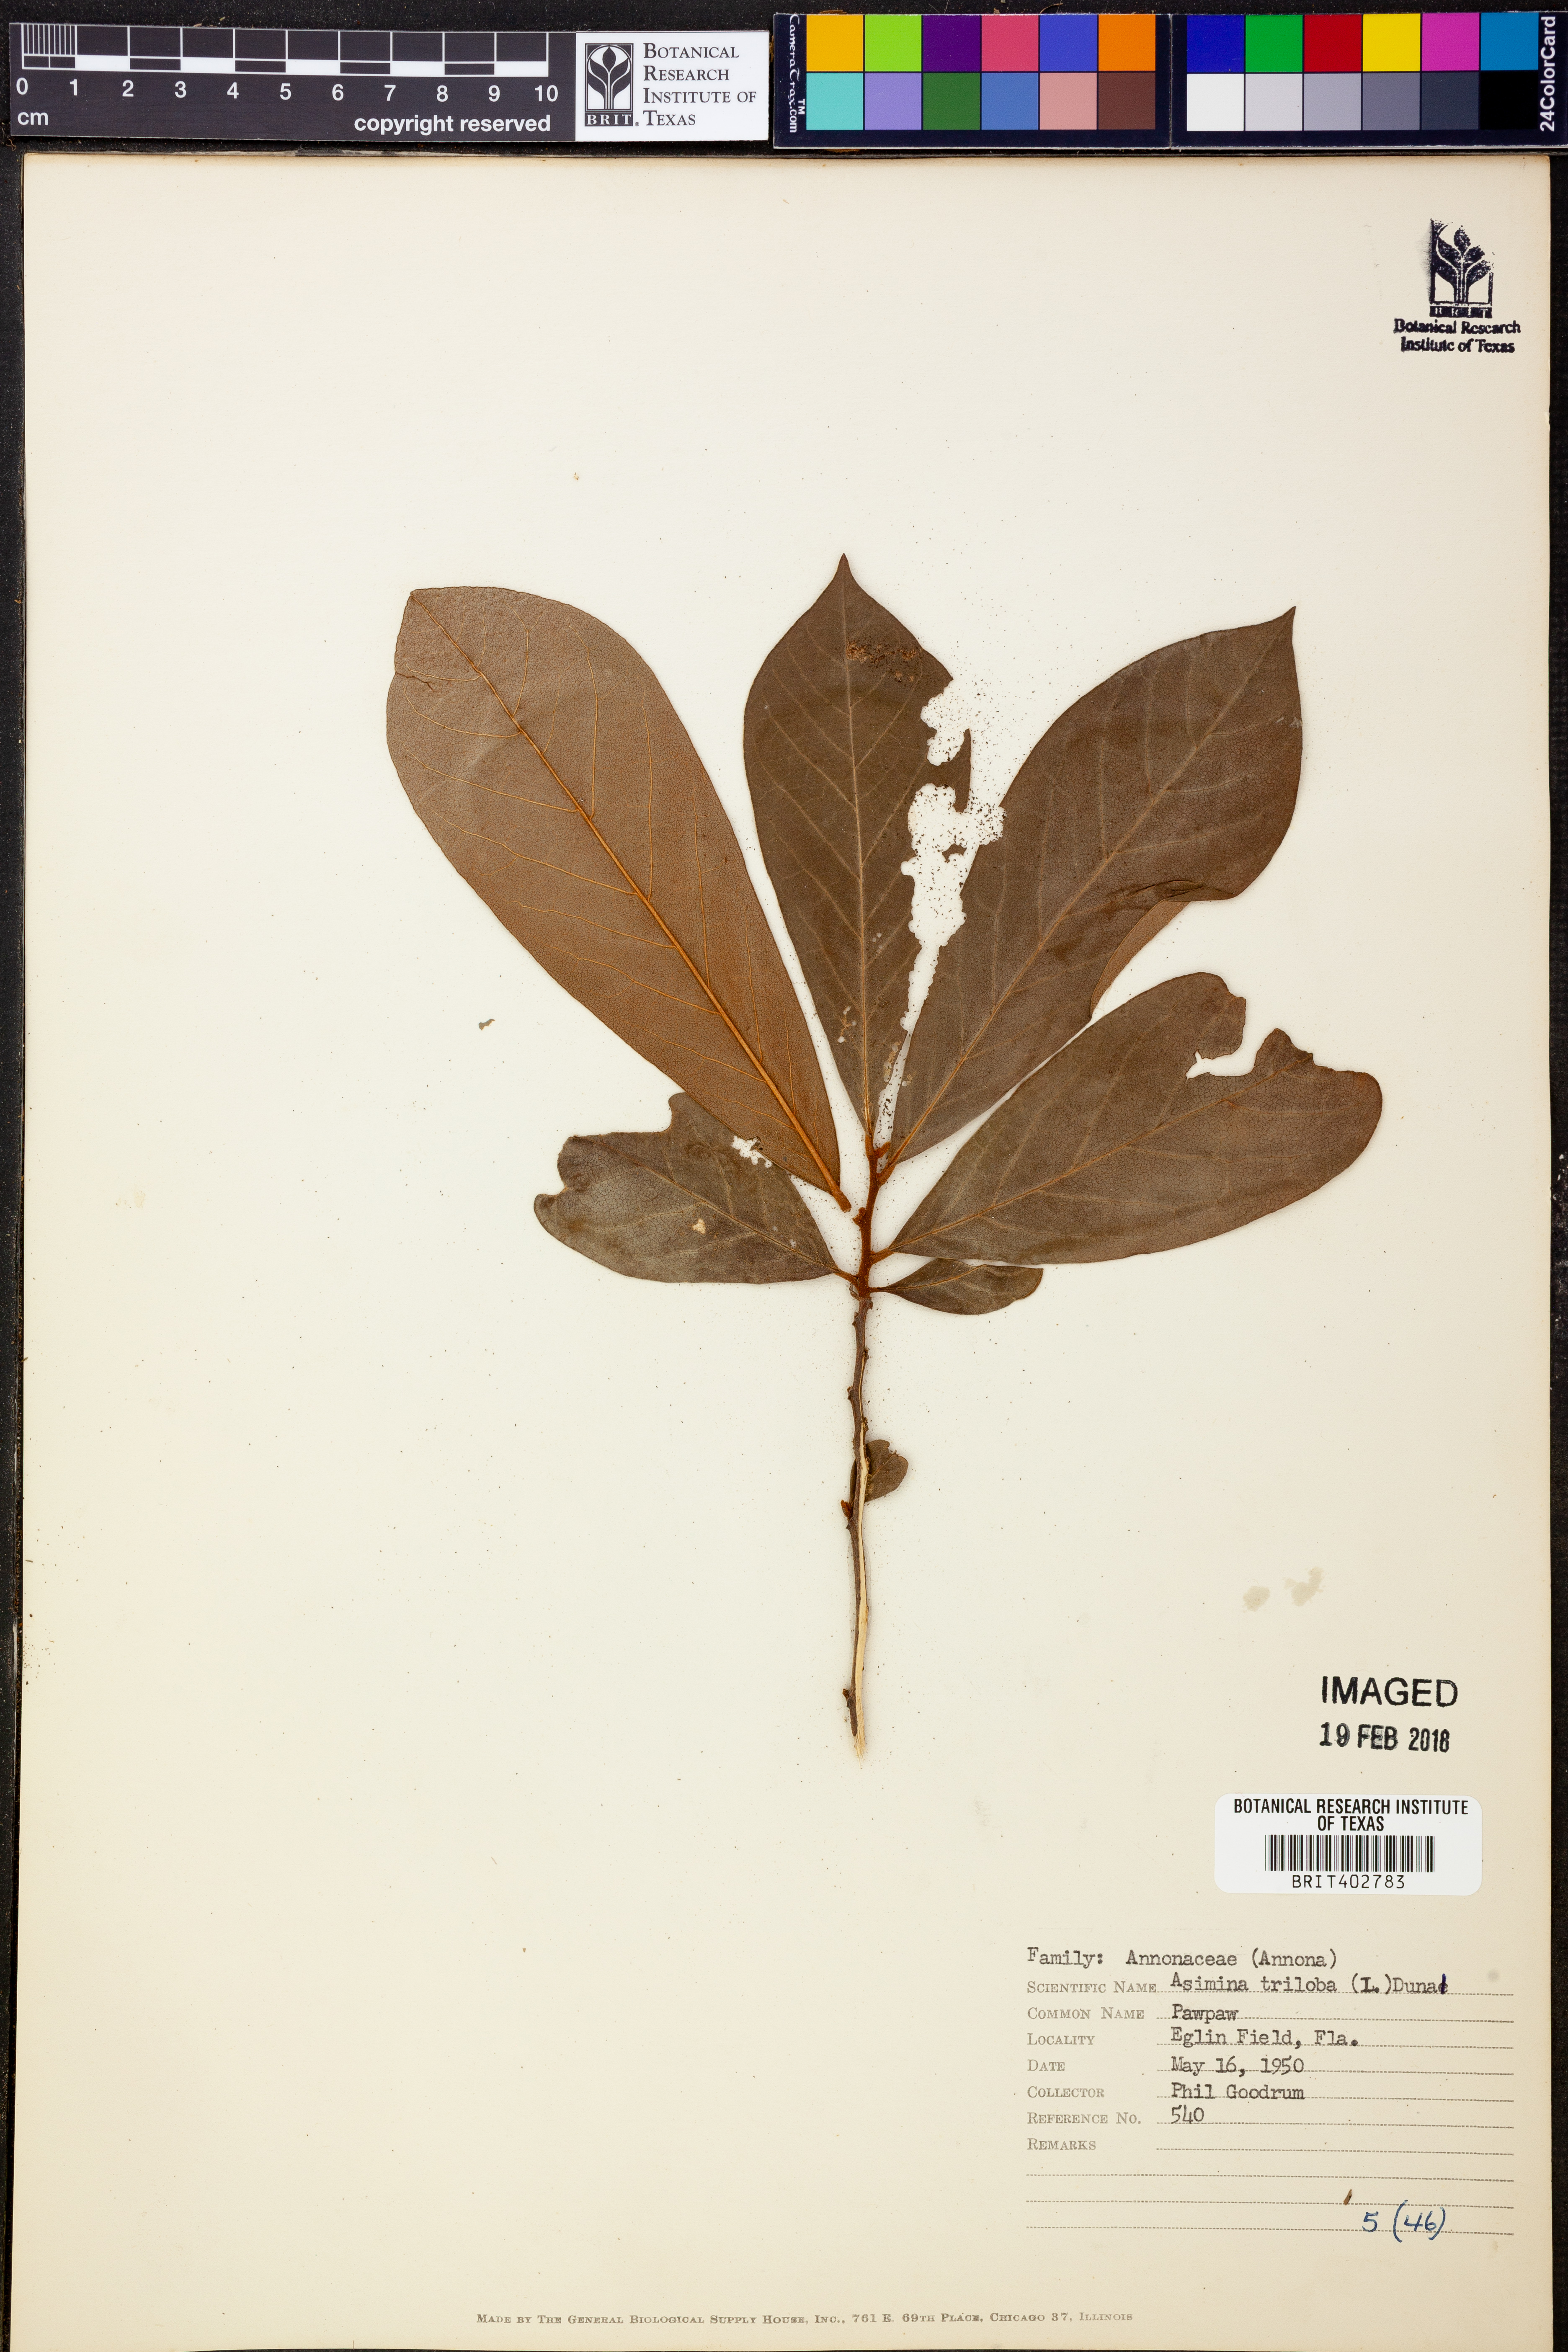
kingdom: Plantae
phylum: Tracheophyta
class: Magnoliopsida
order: Magnoliales
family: Annonaceae
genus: Asimina
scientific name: Asimina triloba
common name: Dog-banana
